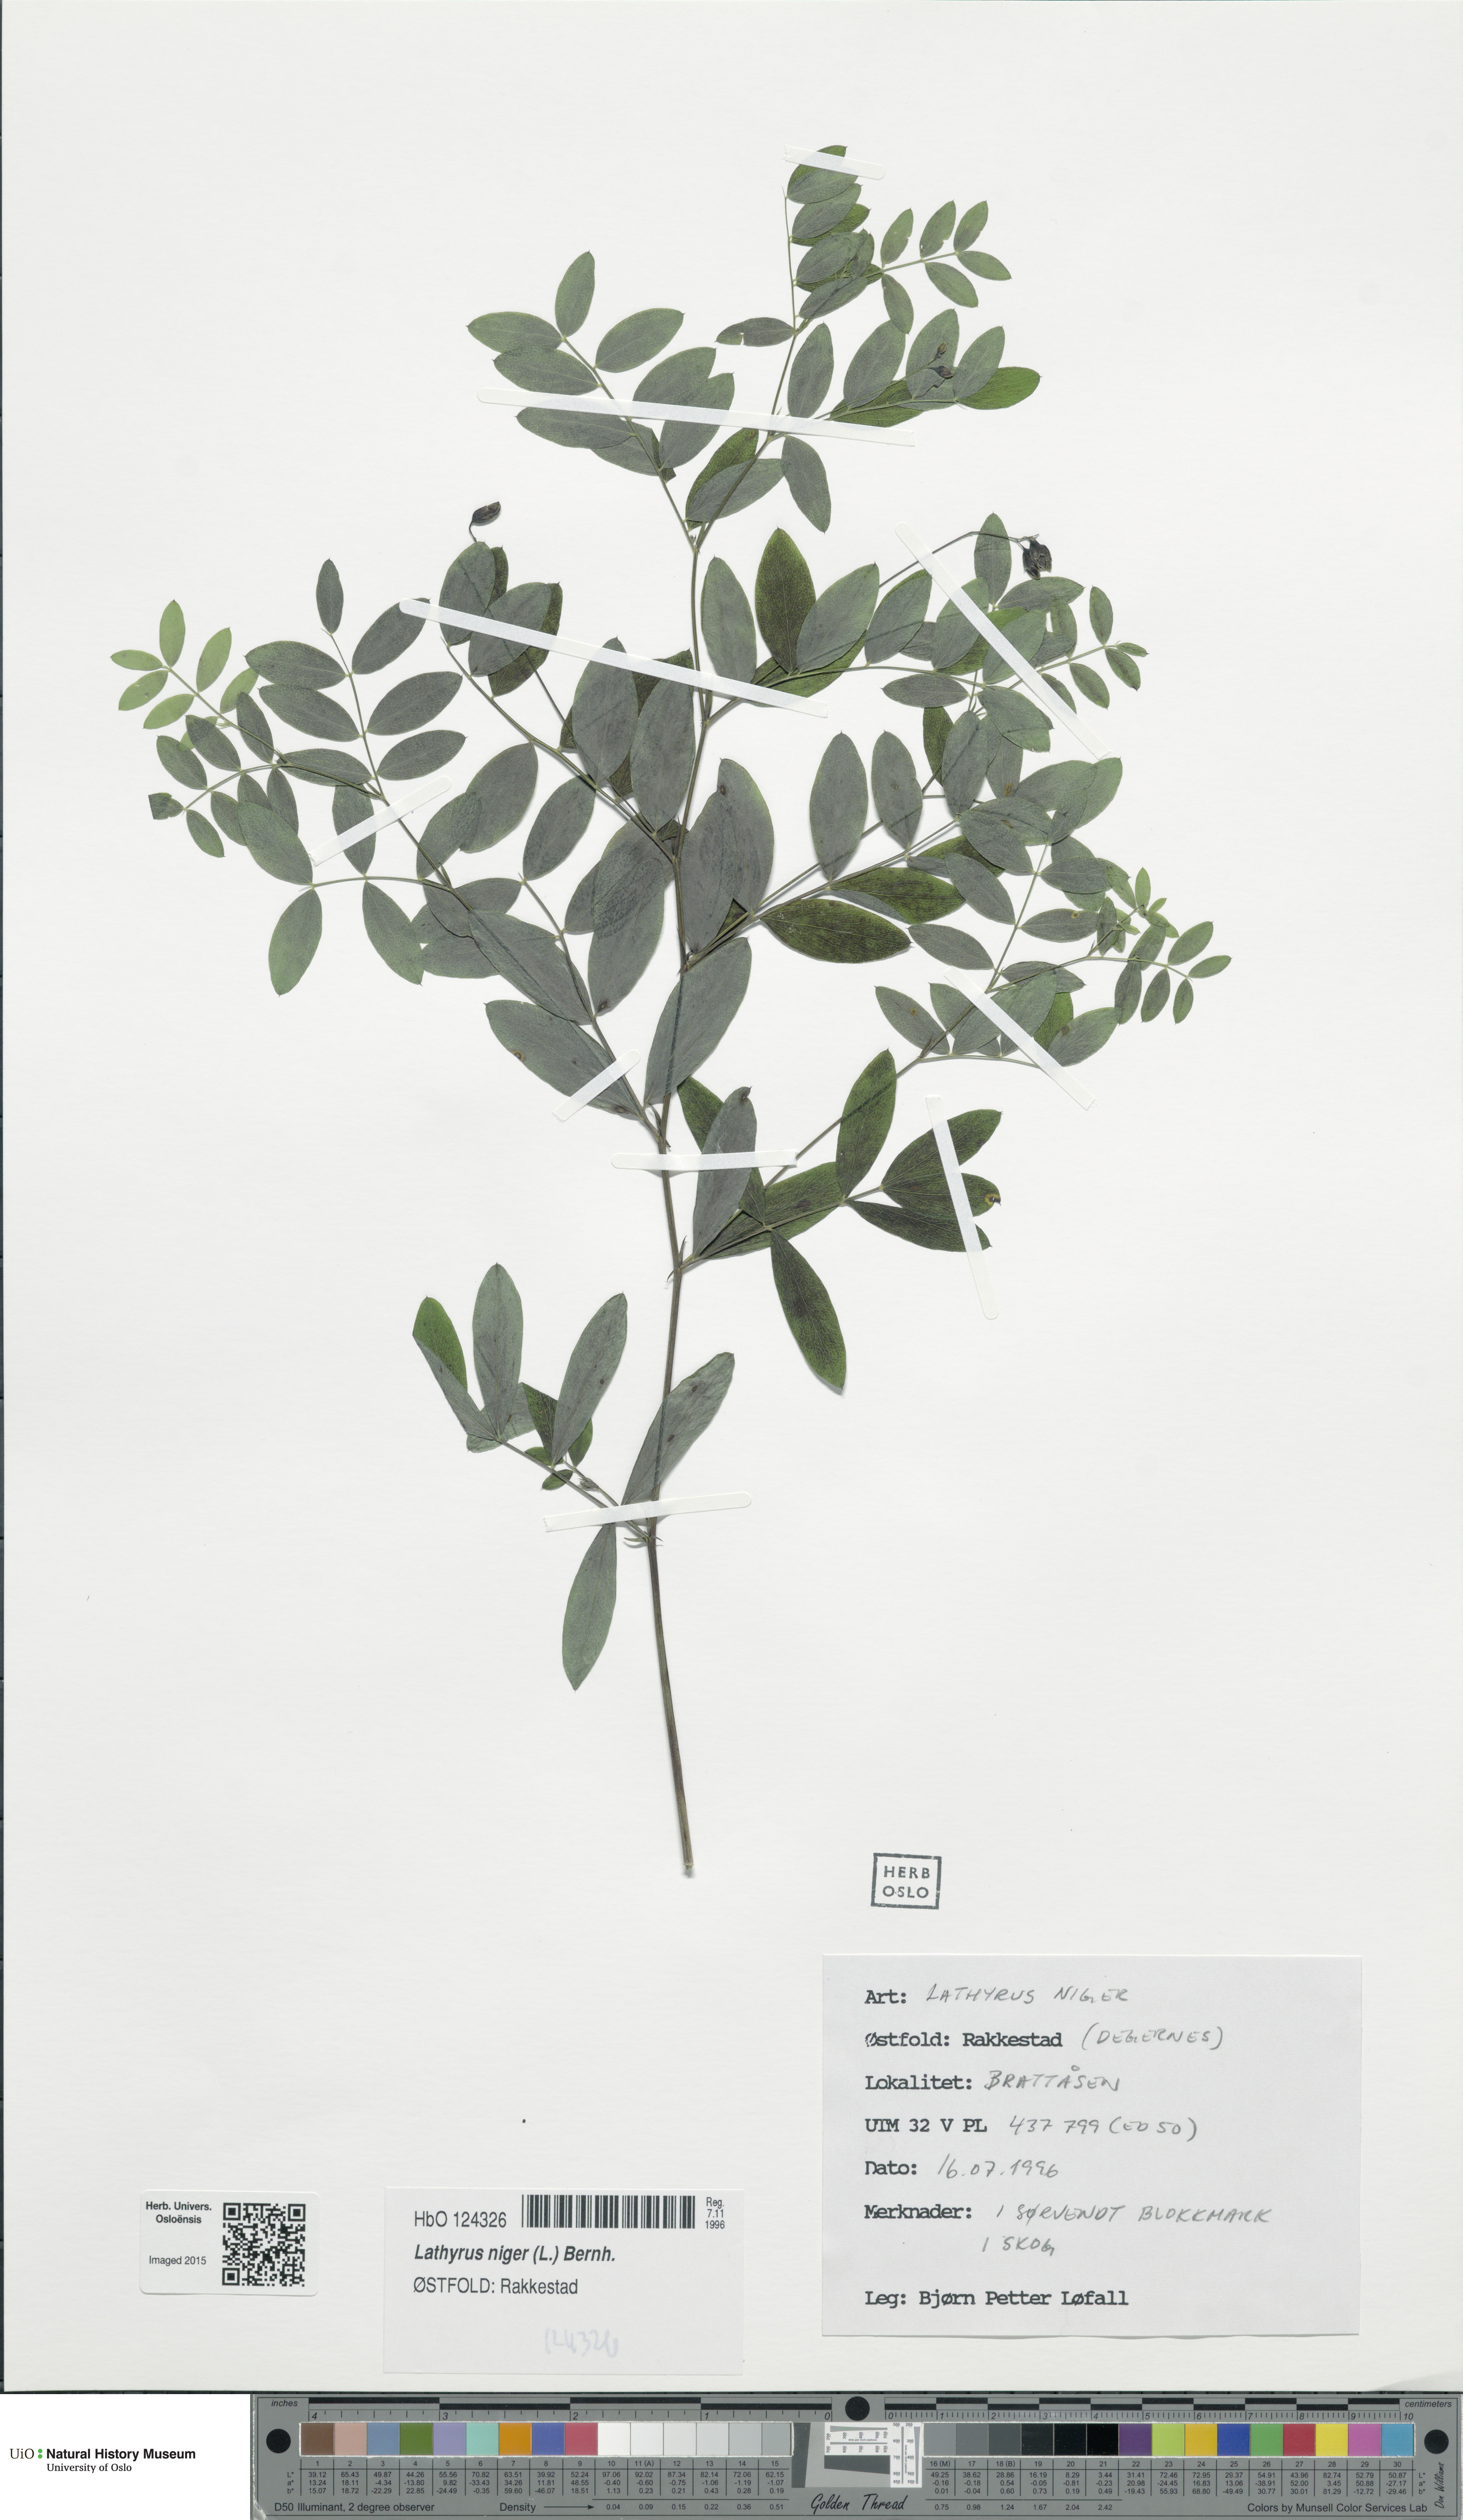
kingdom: Plantae
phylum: Tracheophyta
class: Magnoliopsida
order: Fabales
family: Fabaceae
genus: Lathyrus
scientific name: Lathyrus niger
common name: Black pea
